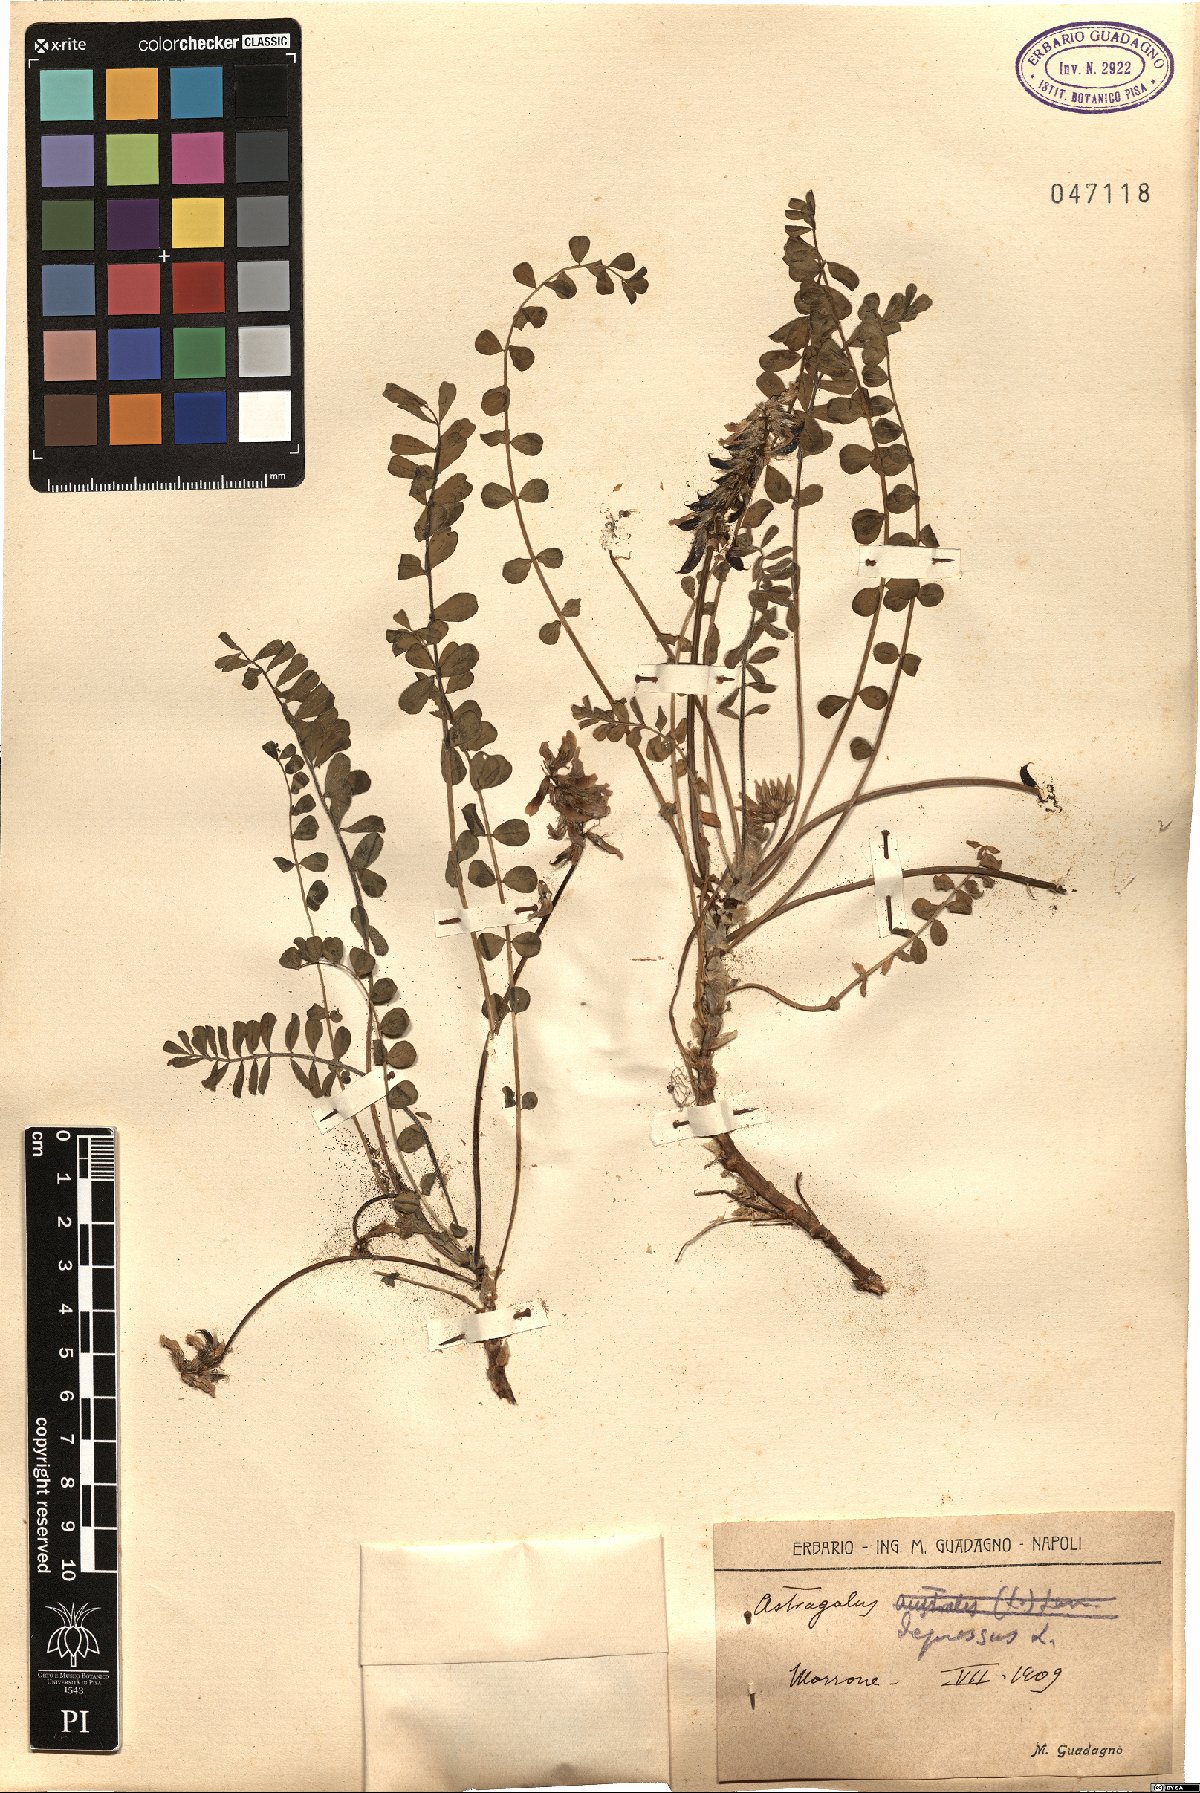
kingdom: Plantae
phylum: Tracheophyta
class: Magnoliopsida
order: Fabales
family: Fabaceae
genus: Astragalus
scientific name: Astragalus depressus
